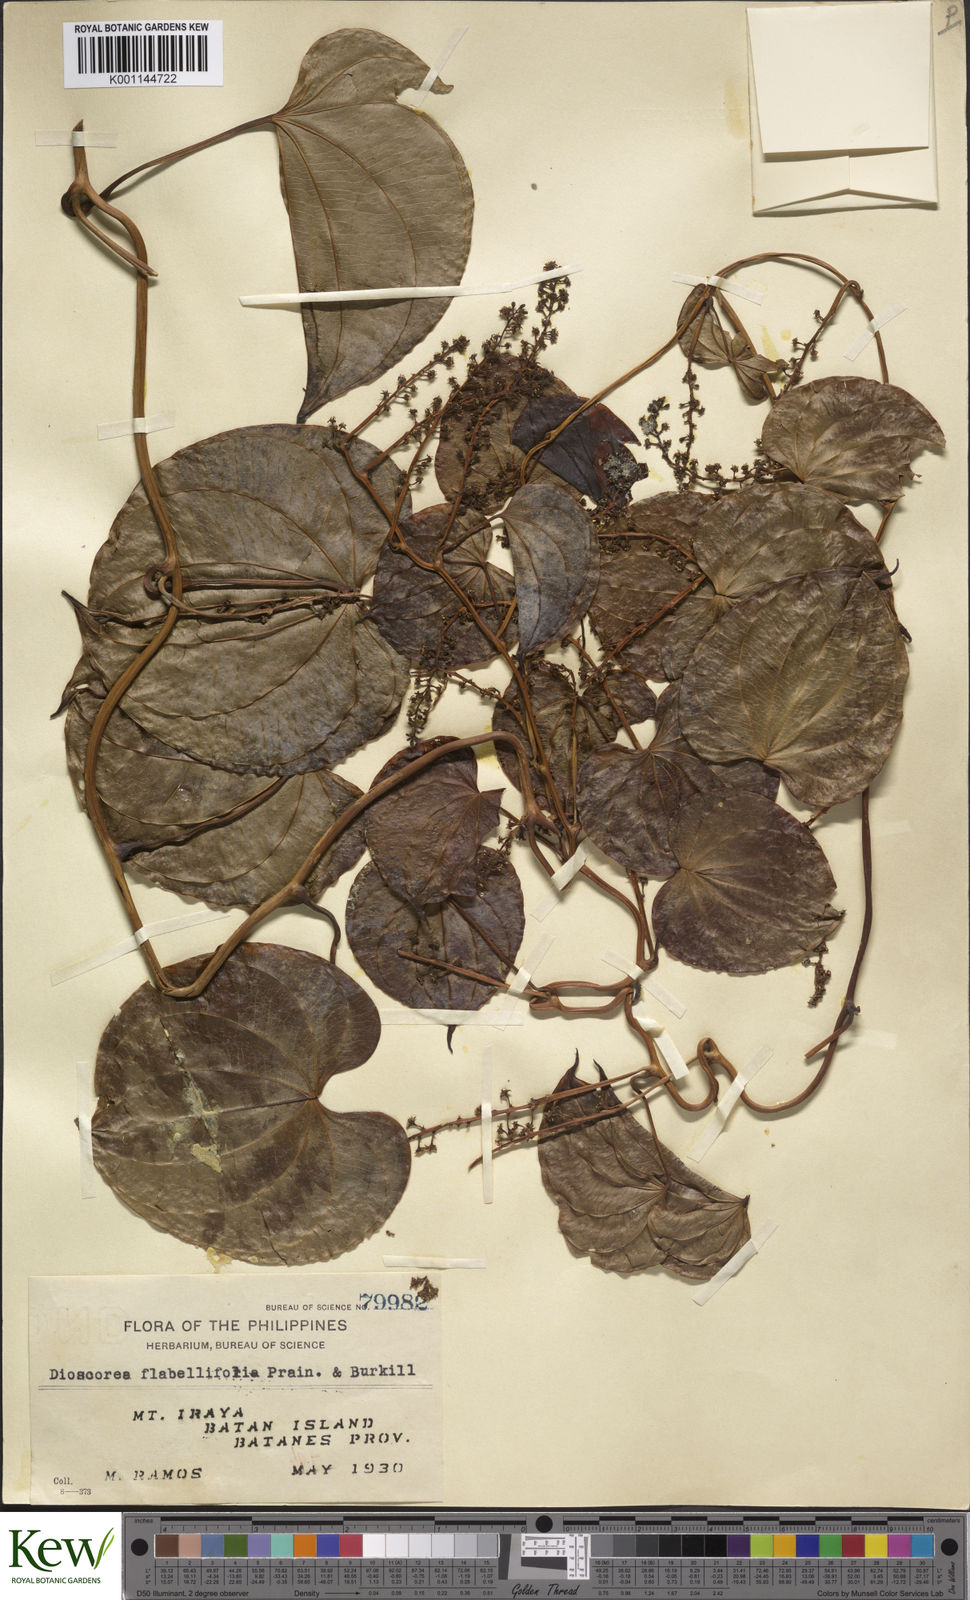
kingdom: Plantae
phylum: Tracheophyta
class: Liliopsida
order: Dioscoreales
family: Dioscoreaceae
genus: Dioscorea
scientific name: Dioscorea flabellifolia
